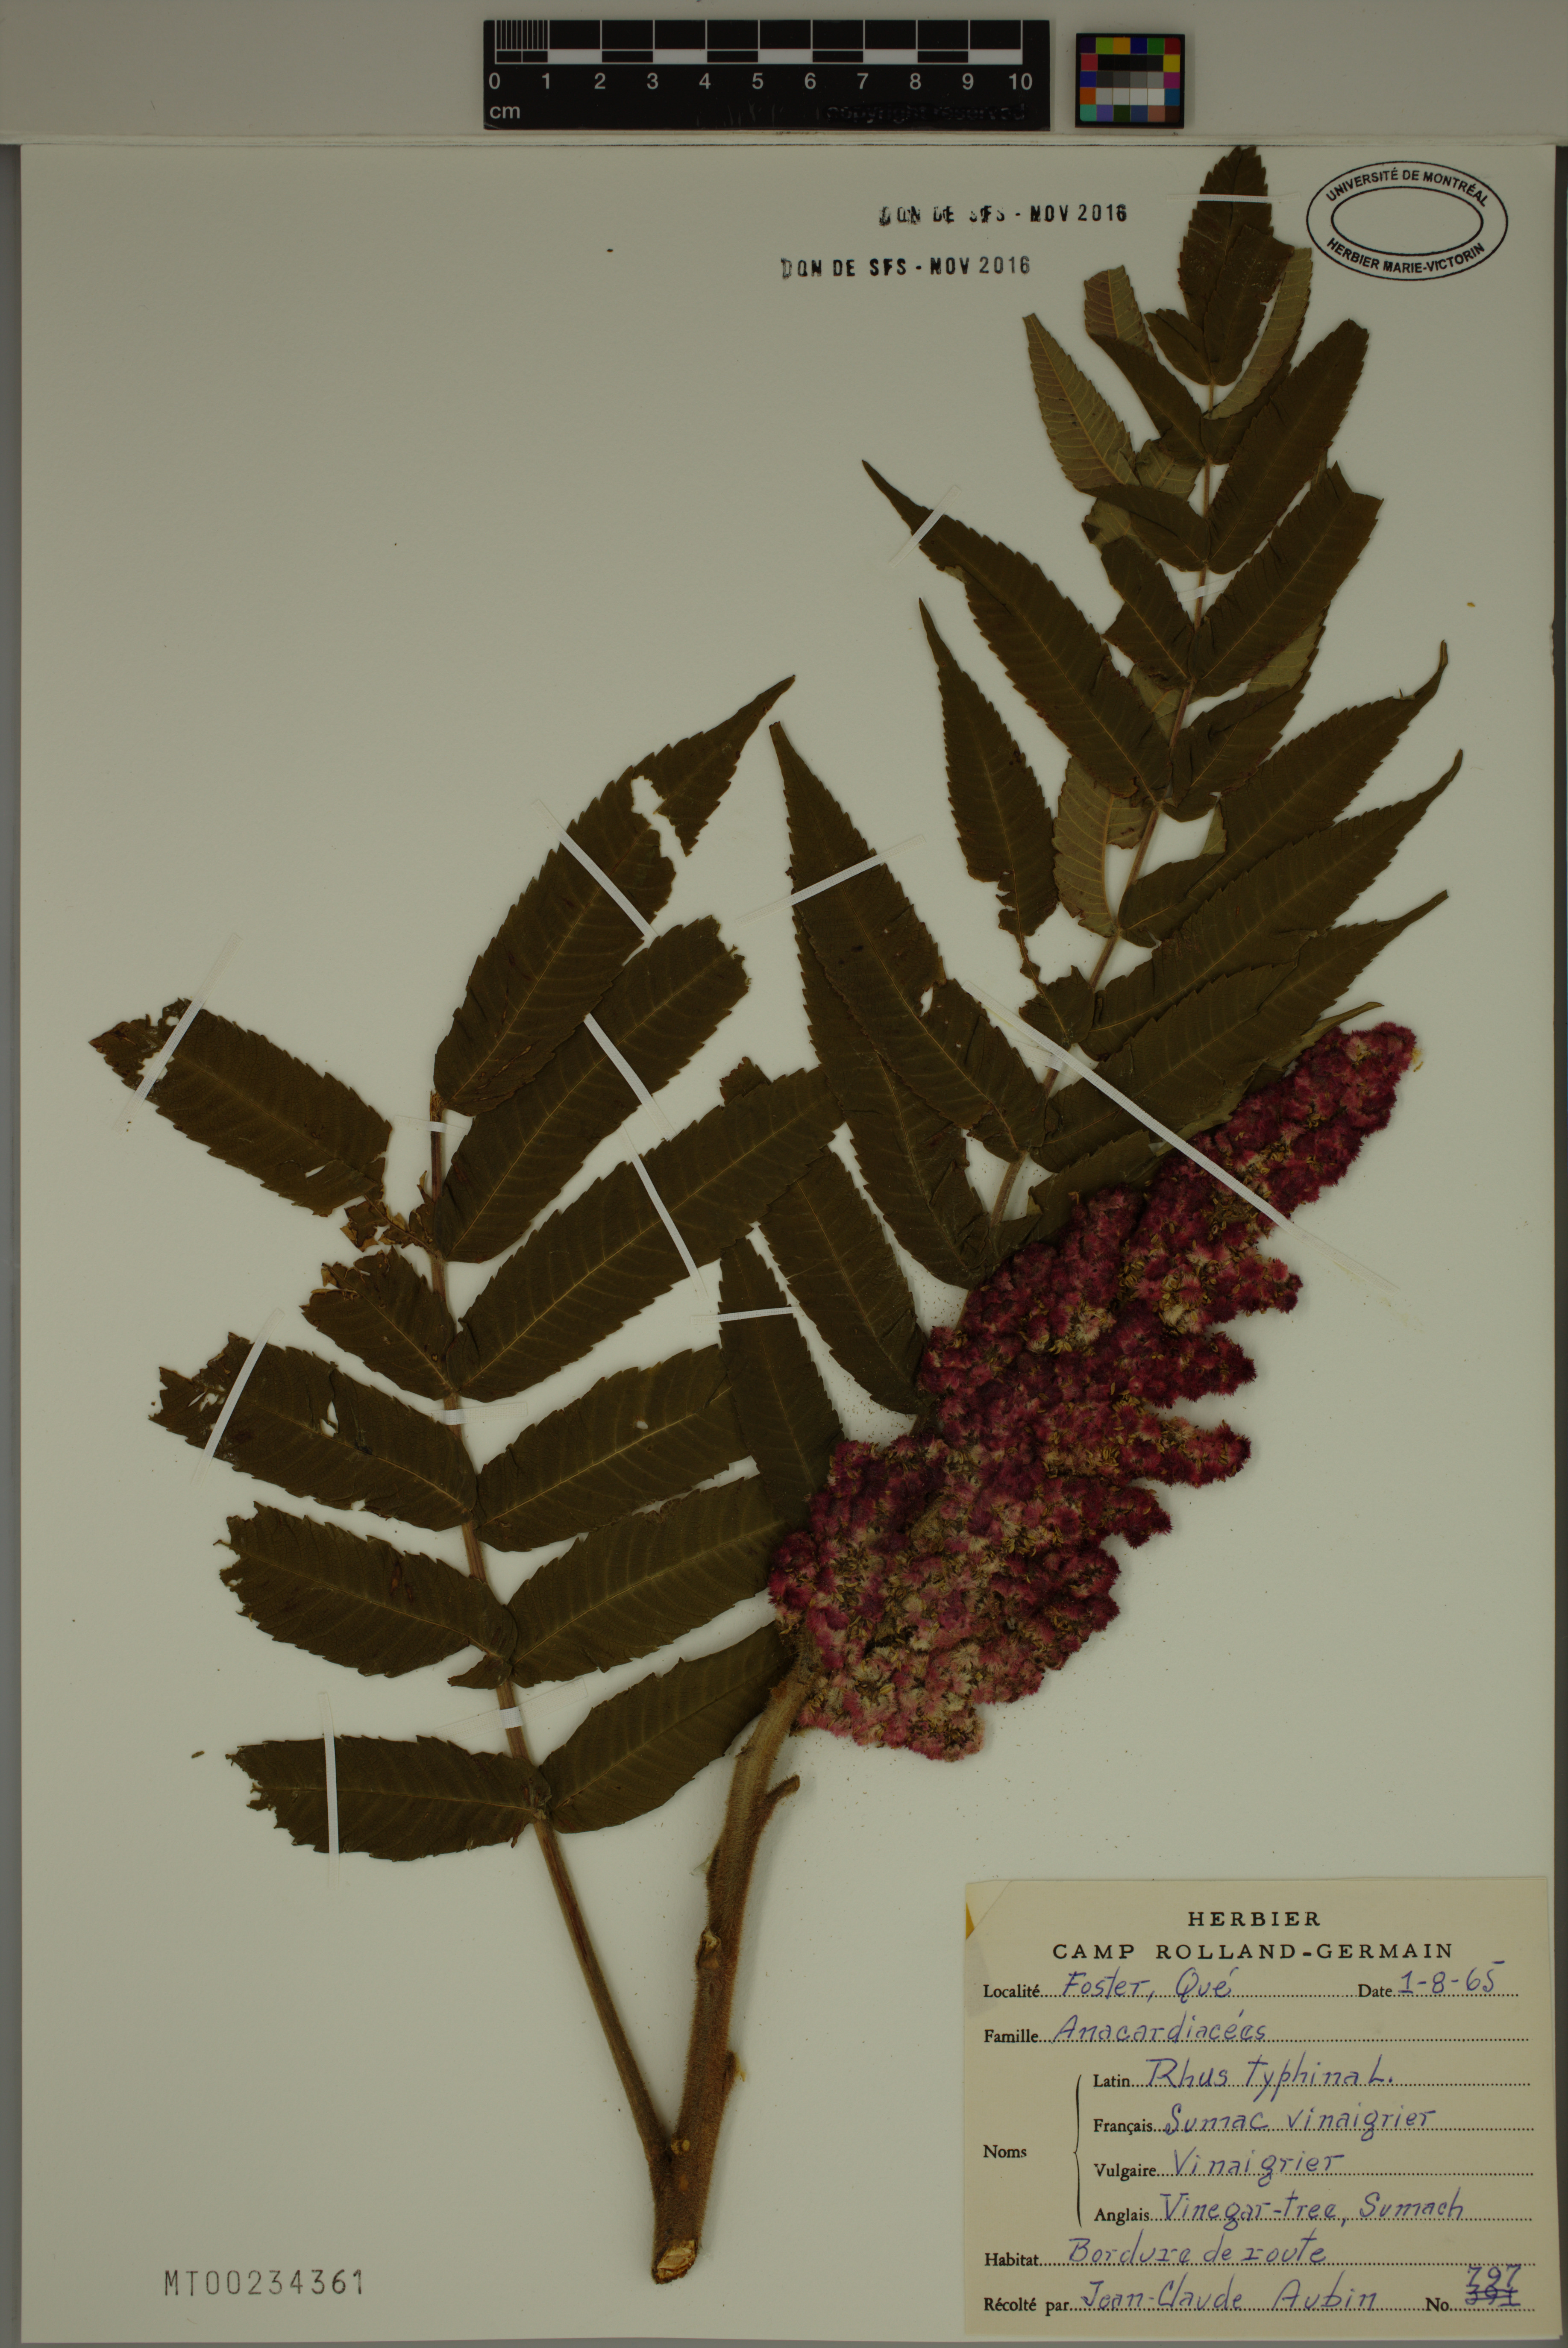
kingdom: Plantae
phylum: Tracheophyta
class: Magnoliopsida
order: Sapindales
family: Anacardiaceae
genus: Rhus
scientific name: Rhus typhina
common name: Staghorn sumac
